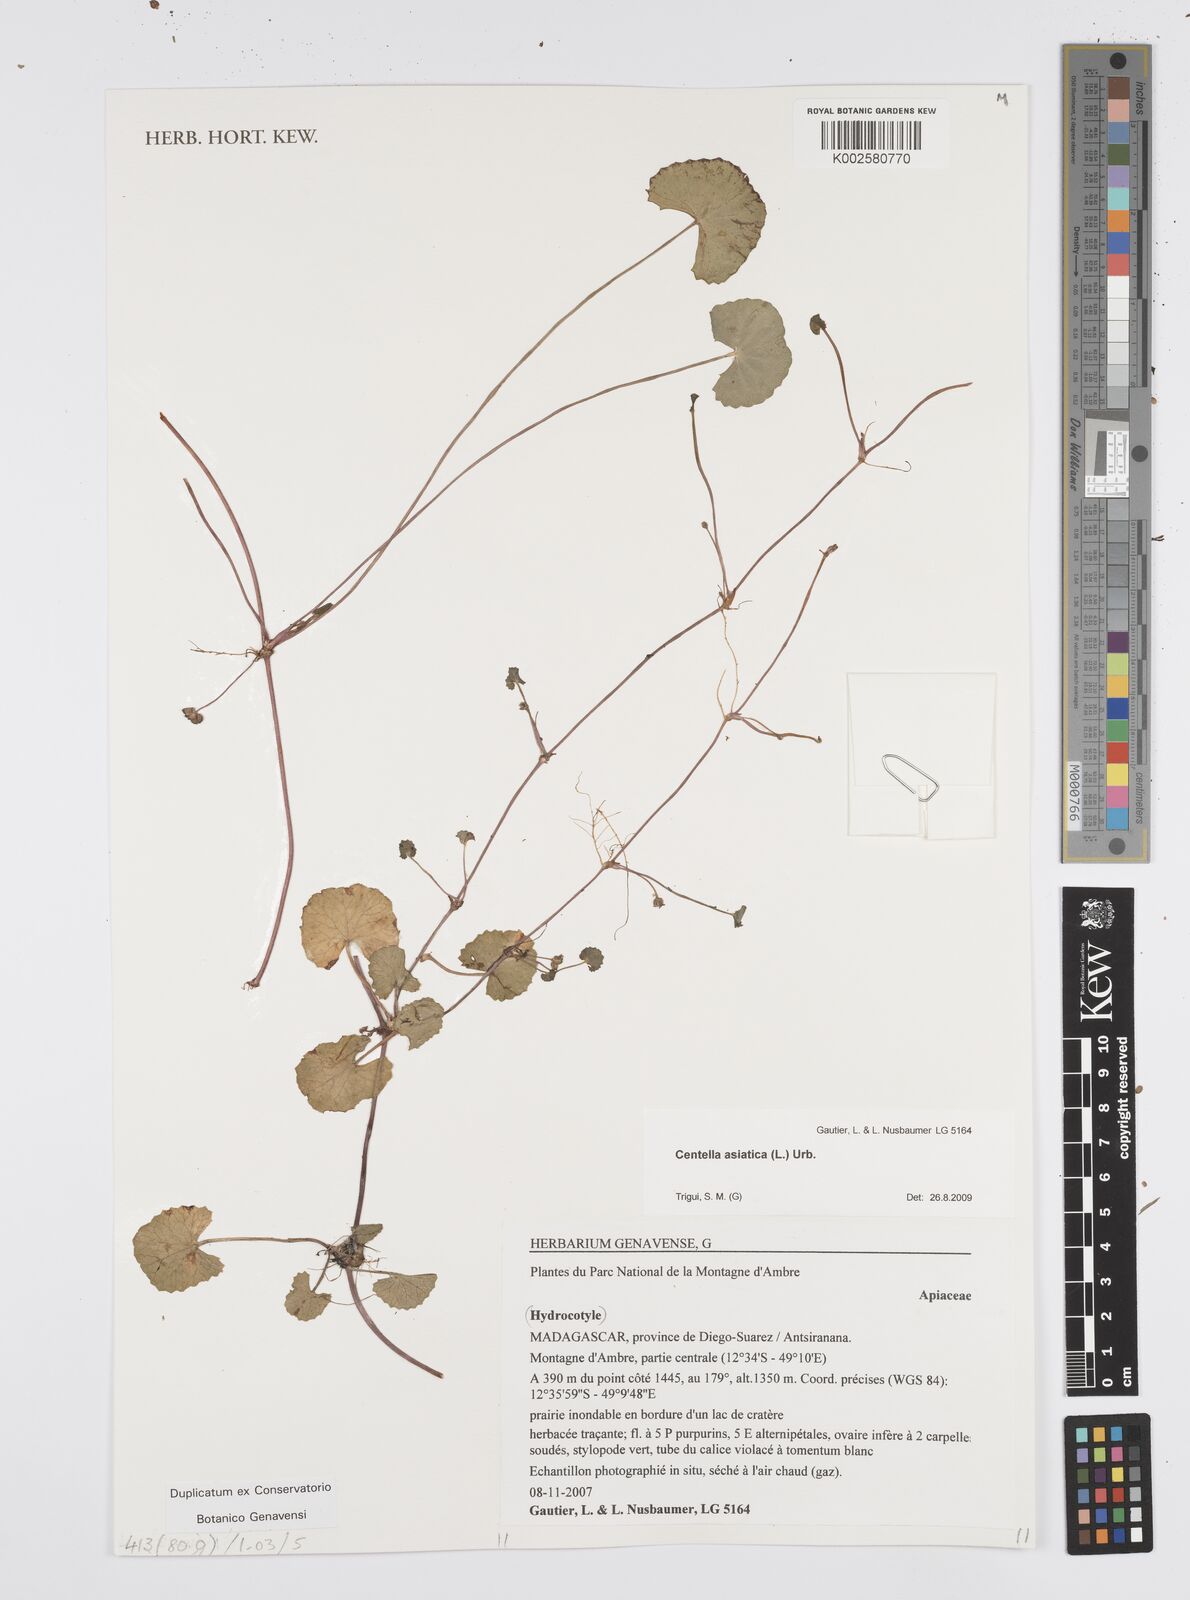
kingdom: Plantae
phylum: Tracheophyta
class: Magnoliopsida
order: Apiales
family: Apiaceae
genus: Centella
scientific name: Centella asiatica
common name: Spadeleaf
